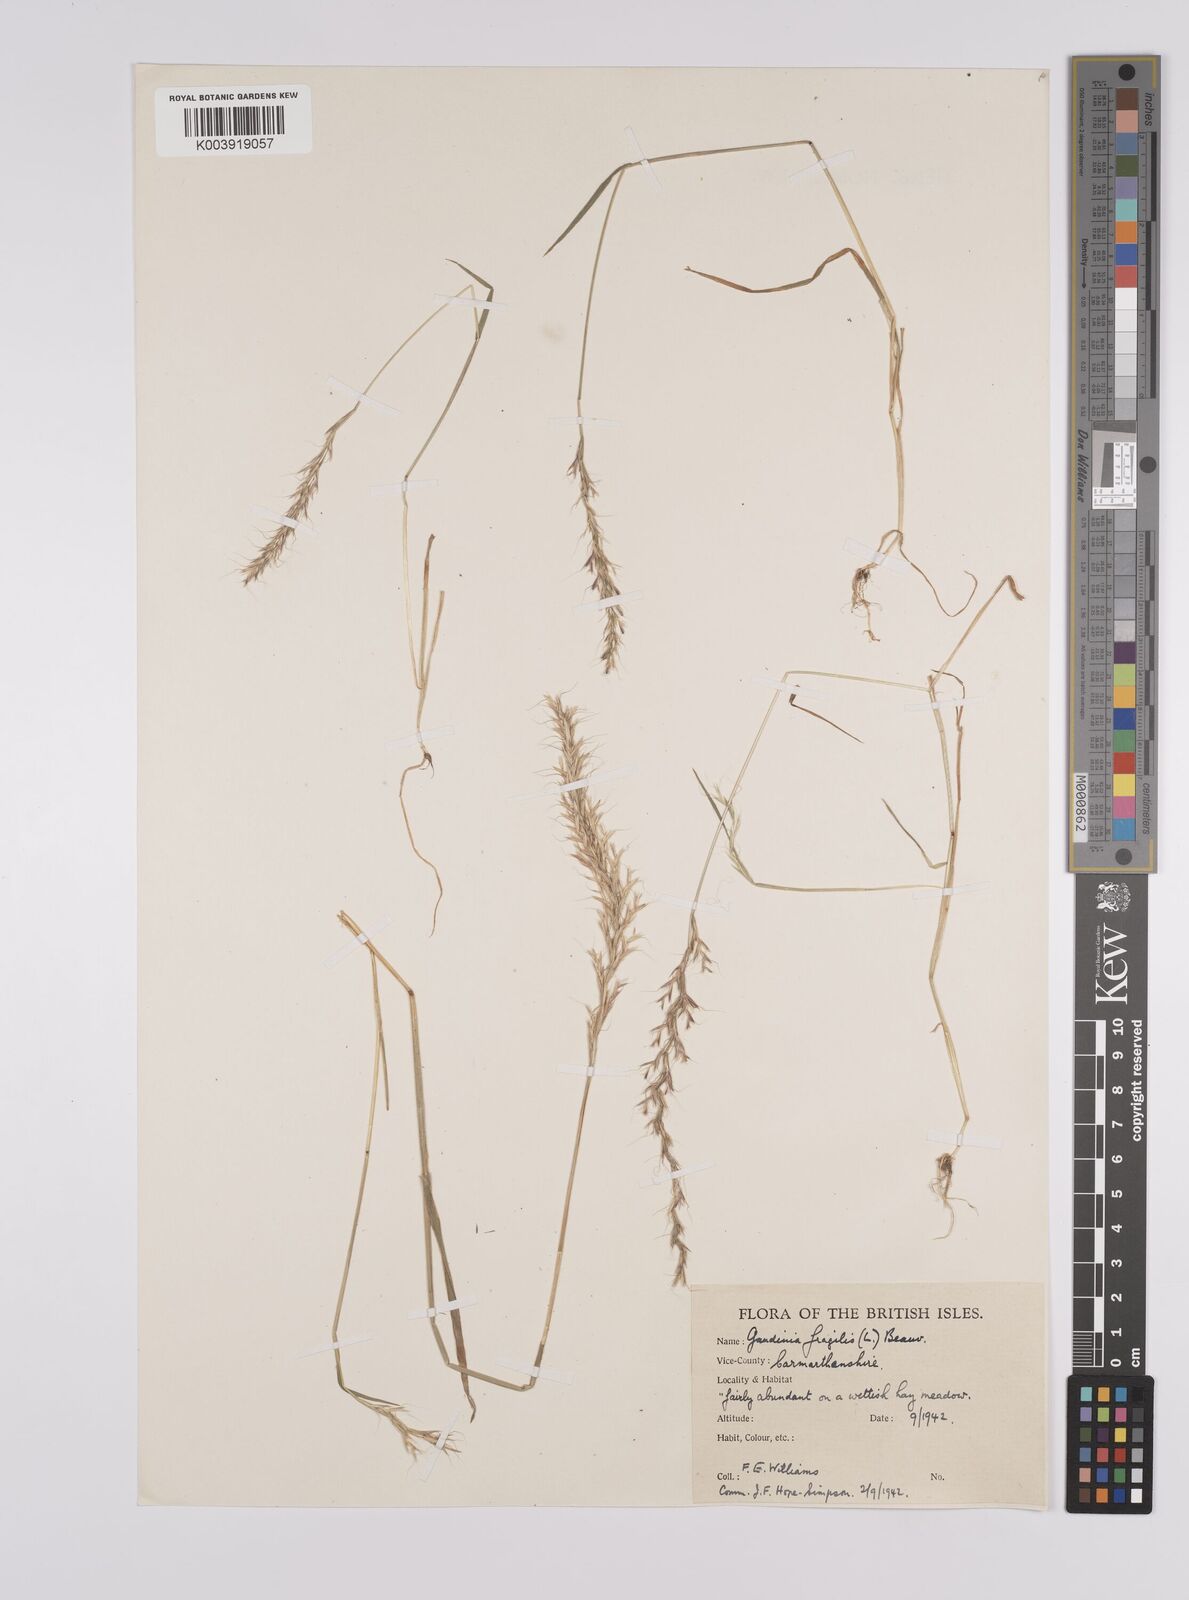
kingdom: Plantae
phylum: Tracheophyta
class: Liliopsida
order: Poales
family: Poaceae
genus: Gaudinia
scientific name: Gaudinia fragilis
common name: French oat-grass
